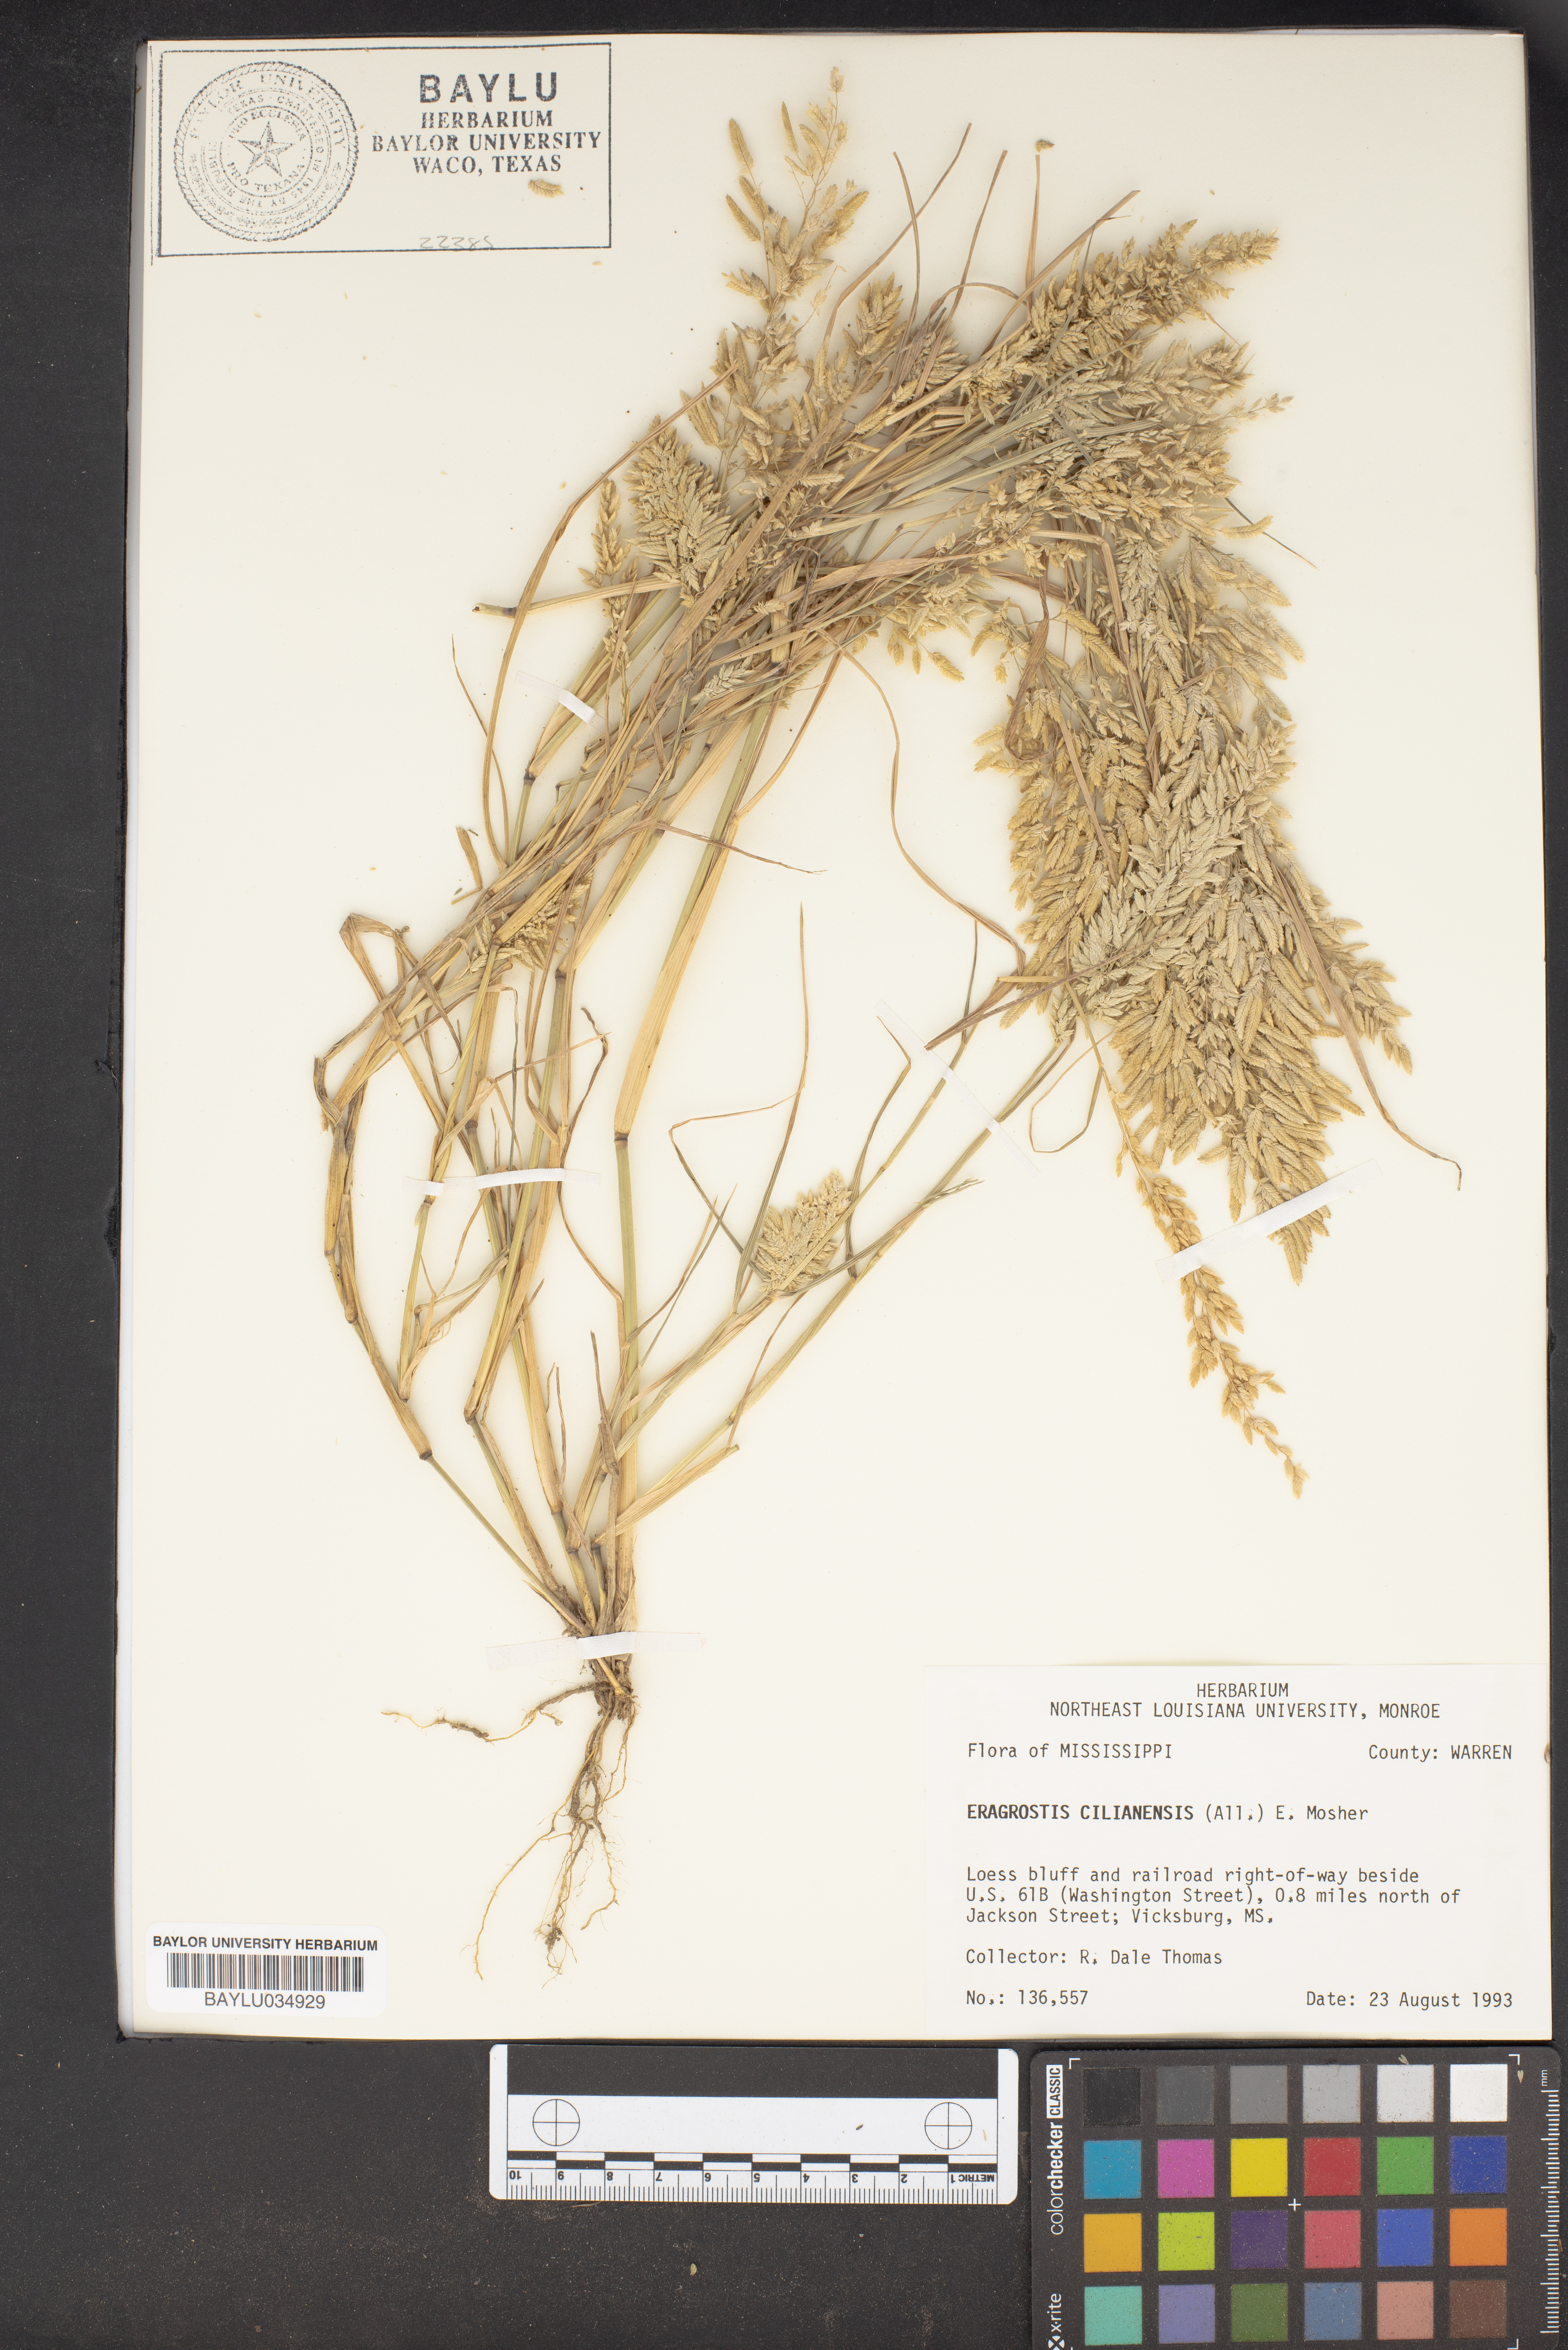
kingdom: Plantae
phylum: Tracheophyta
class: Liliopsida
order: Poales
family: Poaceae
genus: Eragrostis
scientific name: Eragrostis cilianensis
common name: Stinkgrass
